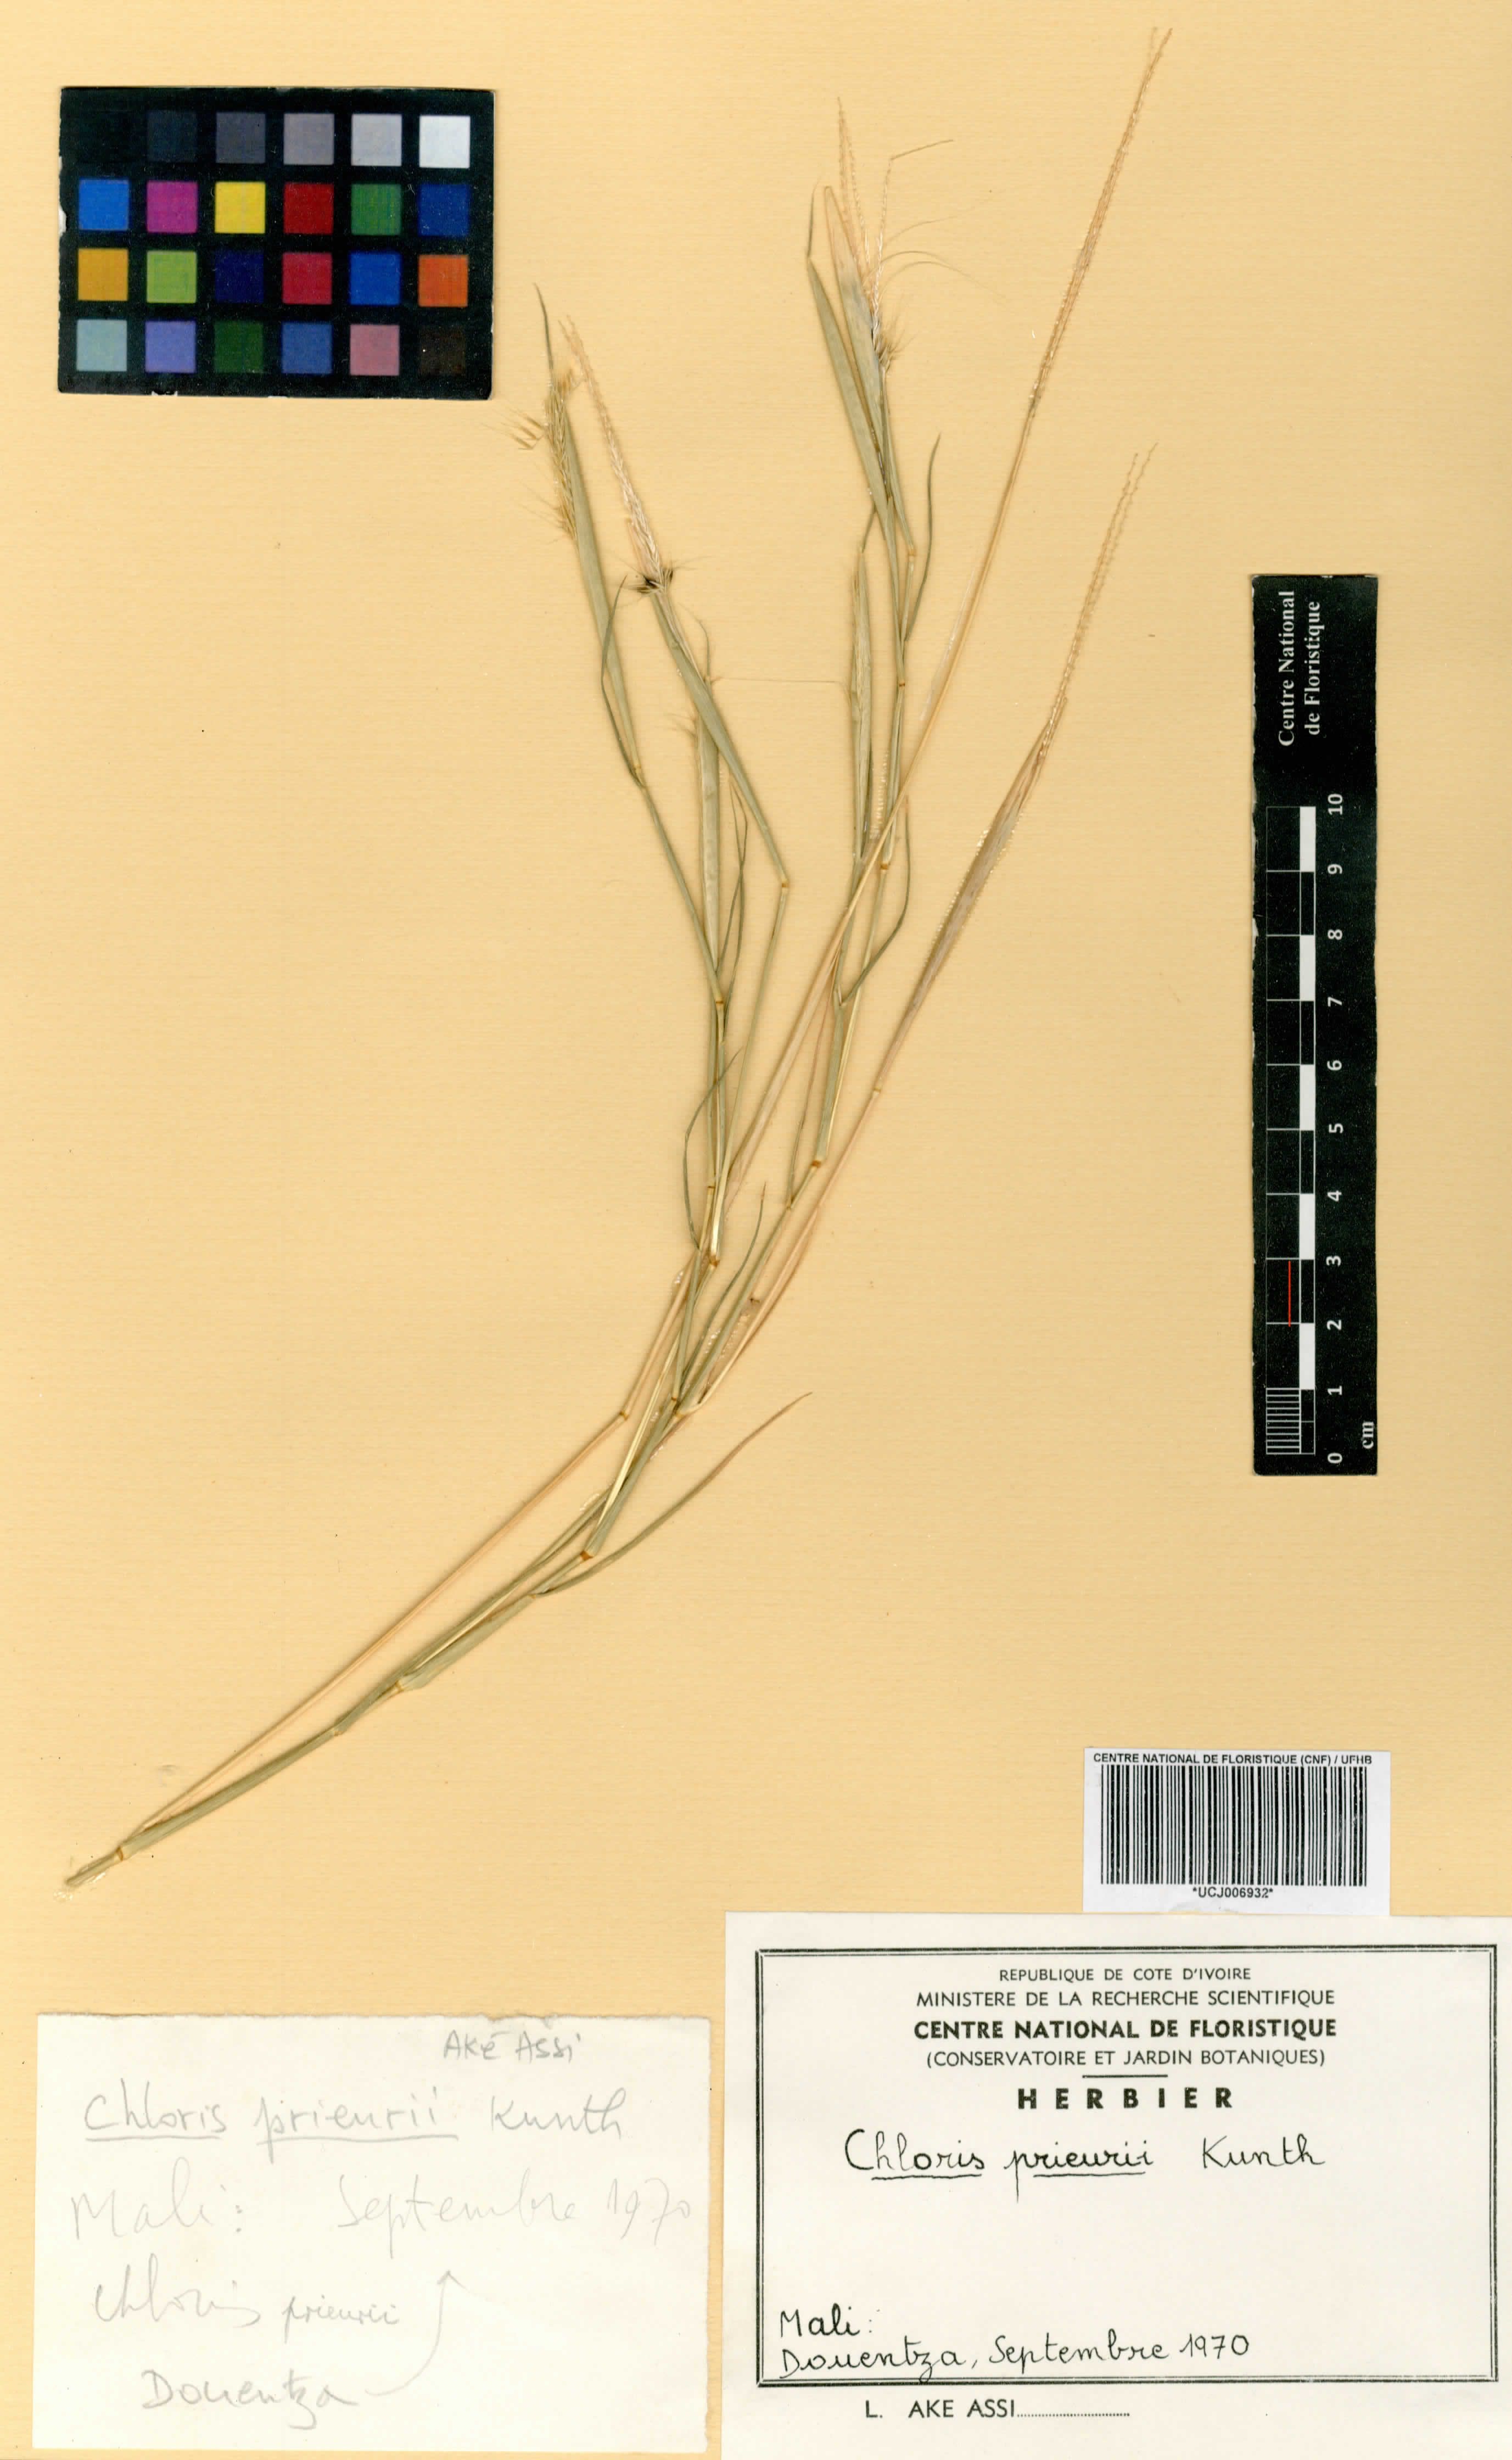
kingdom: Plantae
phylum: Tracheophyta
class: Liliopsida
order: Poales
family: Poaceae
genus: Enteropogon
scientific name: Enteropogon prieurii
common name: Prieur's umbrellagrass
